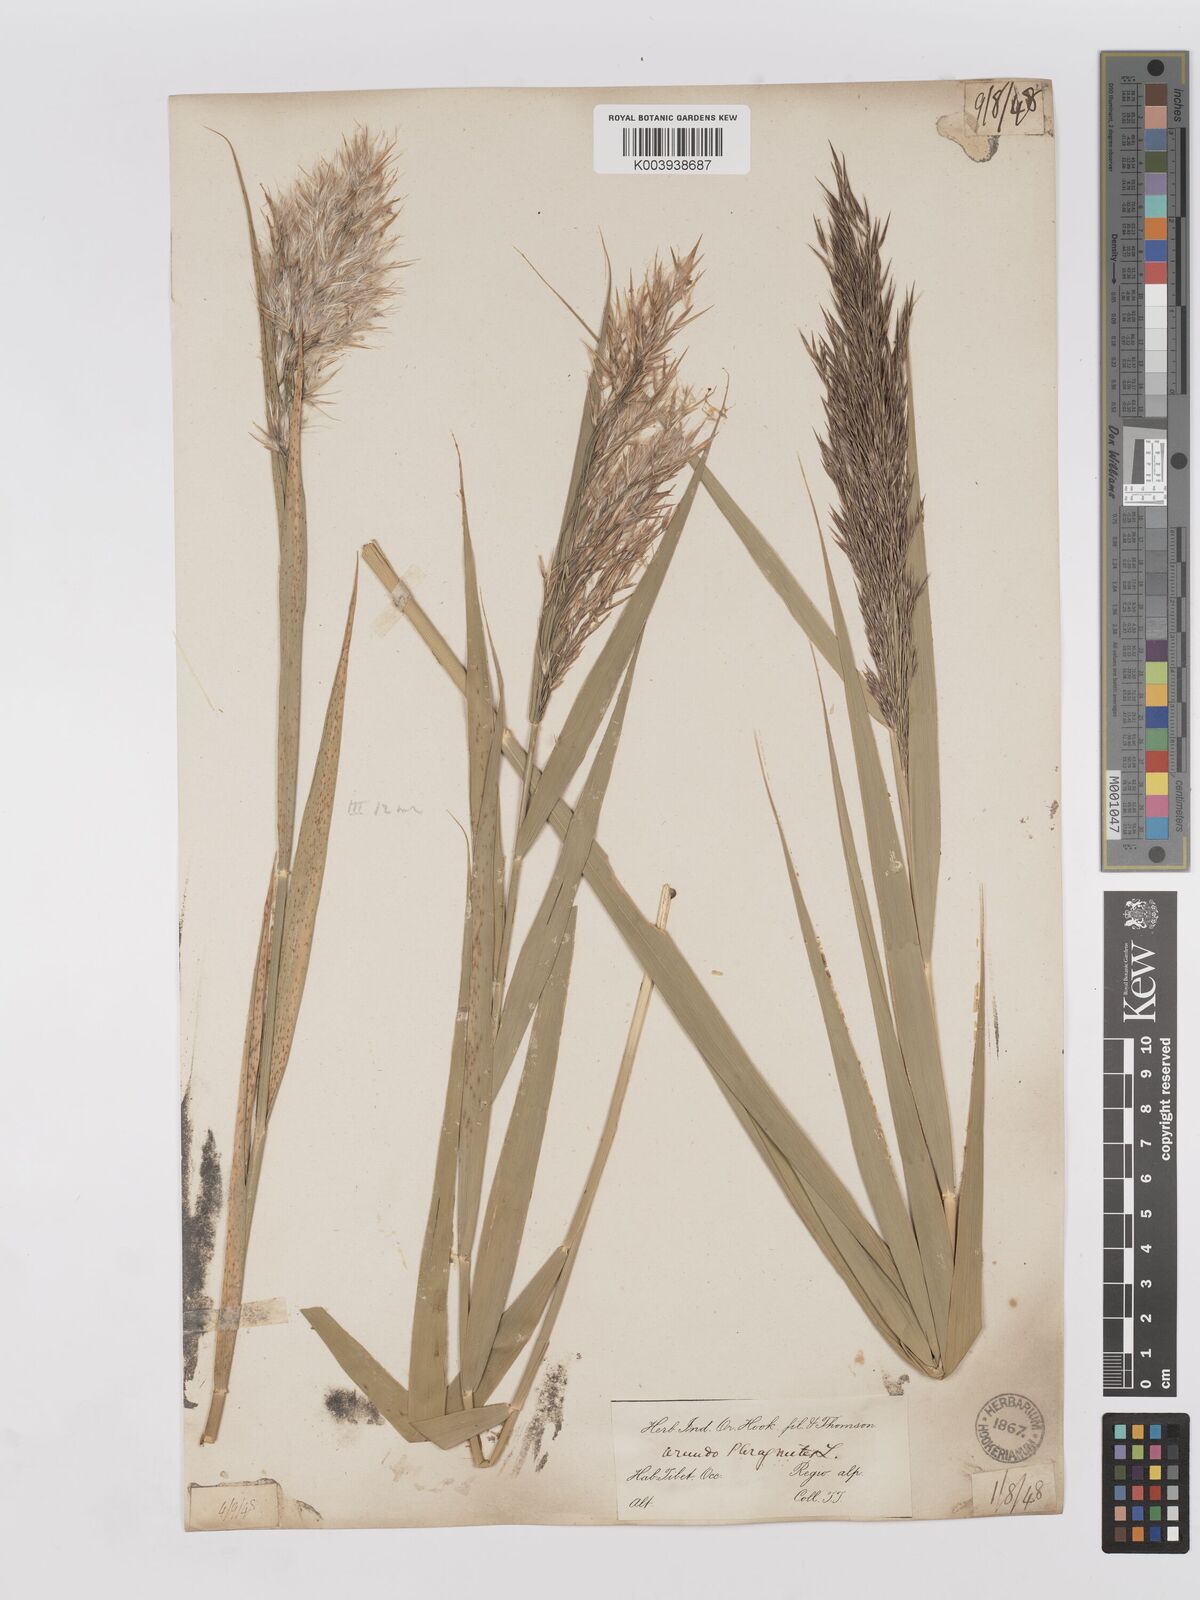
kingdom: Plantae
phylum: Tracheophyta
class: Liliopsida
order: Poales
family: Poaceae
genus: Phragmites
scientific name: Phragmites australis
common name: Common reed
